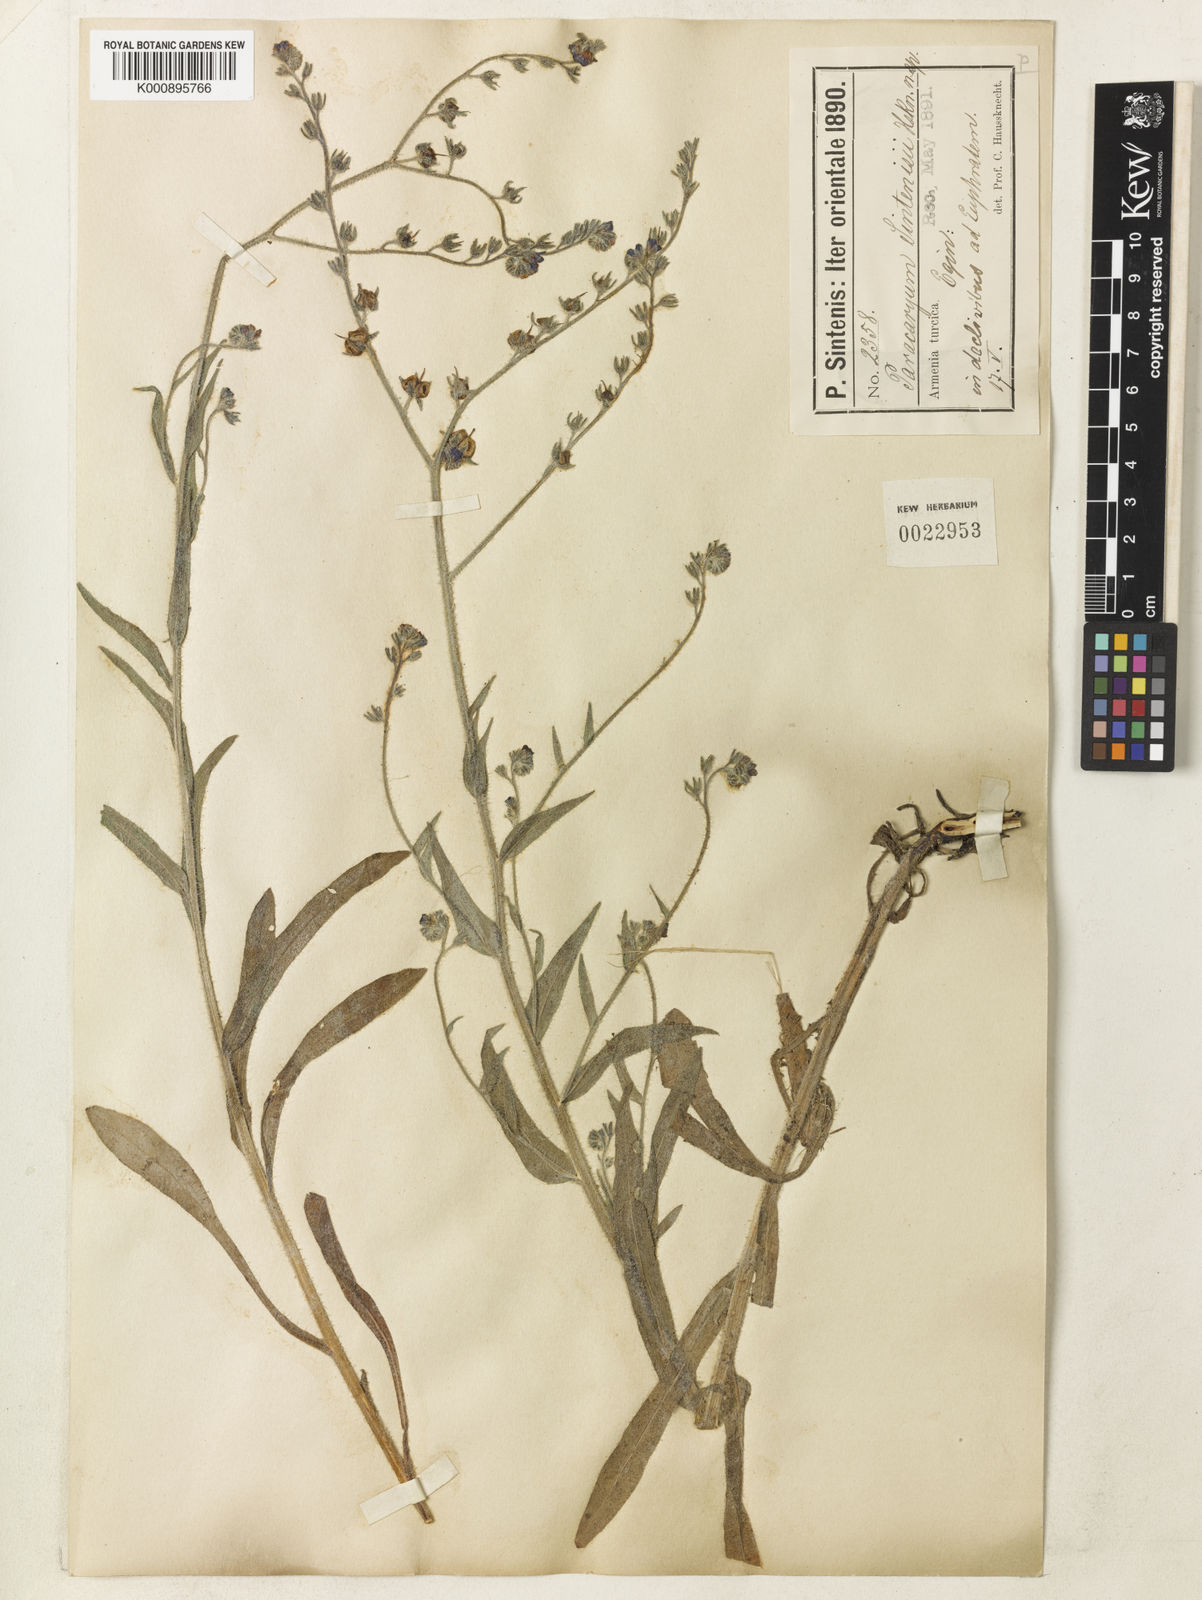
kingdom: Plantae
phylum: Tracheophyta
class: Magnoliopsida
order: Boraginales
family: Boraginaceae
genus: Paracaryum
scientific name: Paracaryum modestum
